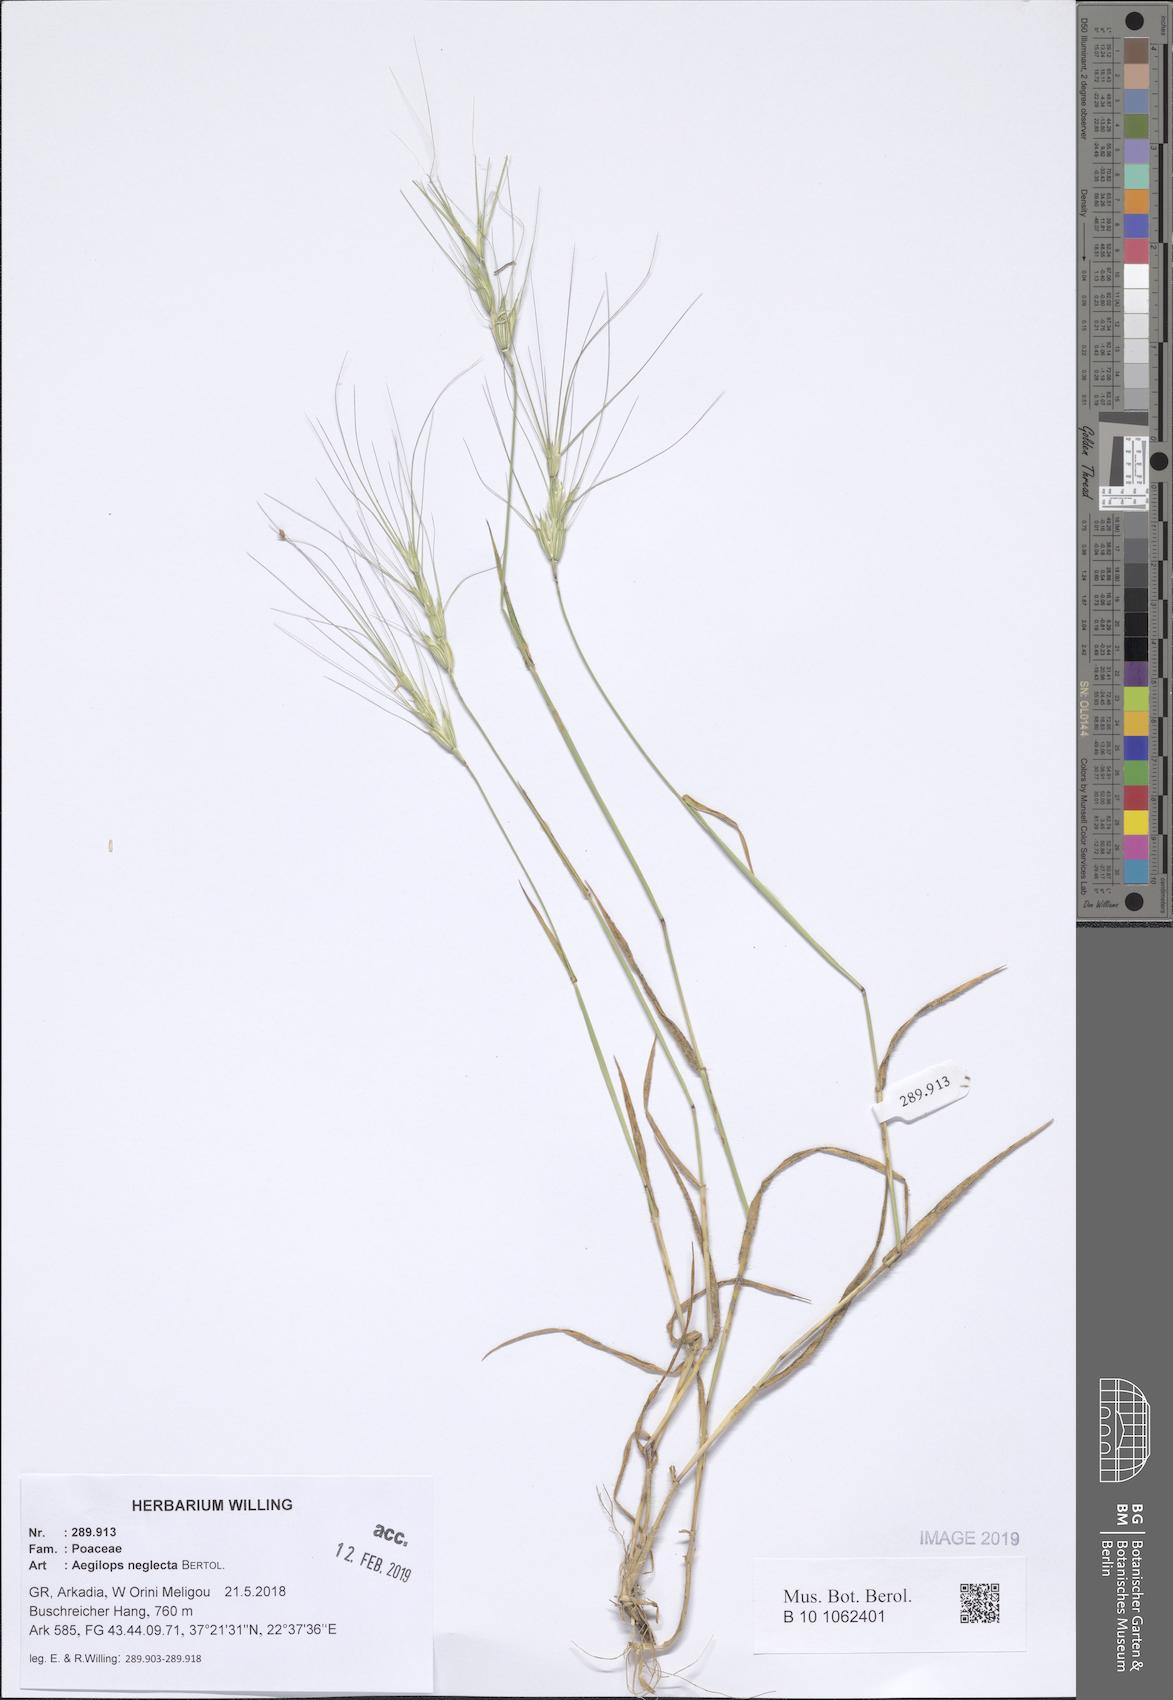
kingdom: Plantae
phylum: Tracheophyta
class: Liliopsida
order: Poales
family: Poaceae
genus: Aegilops
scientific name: Aegilops neglecta
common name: Three-awn goat grass
